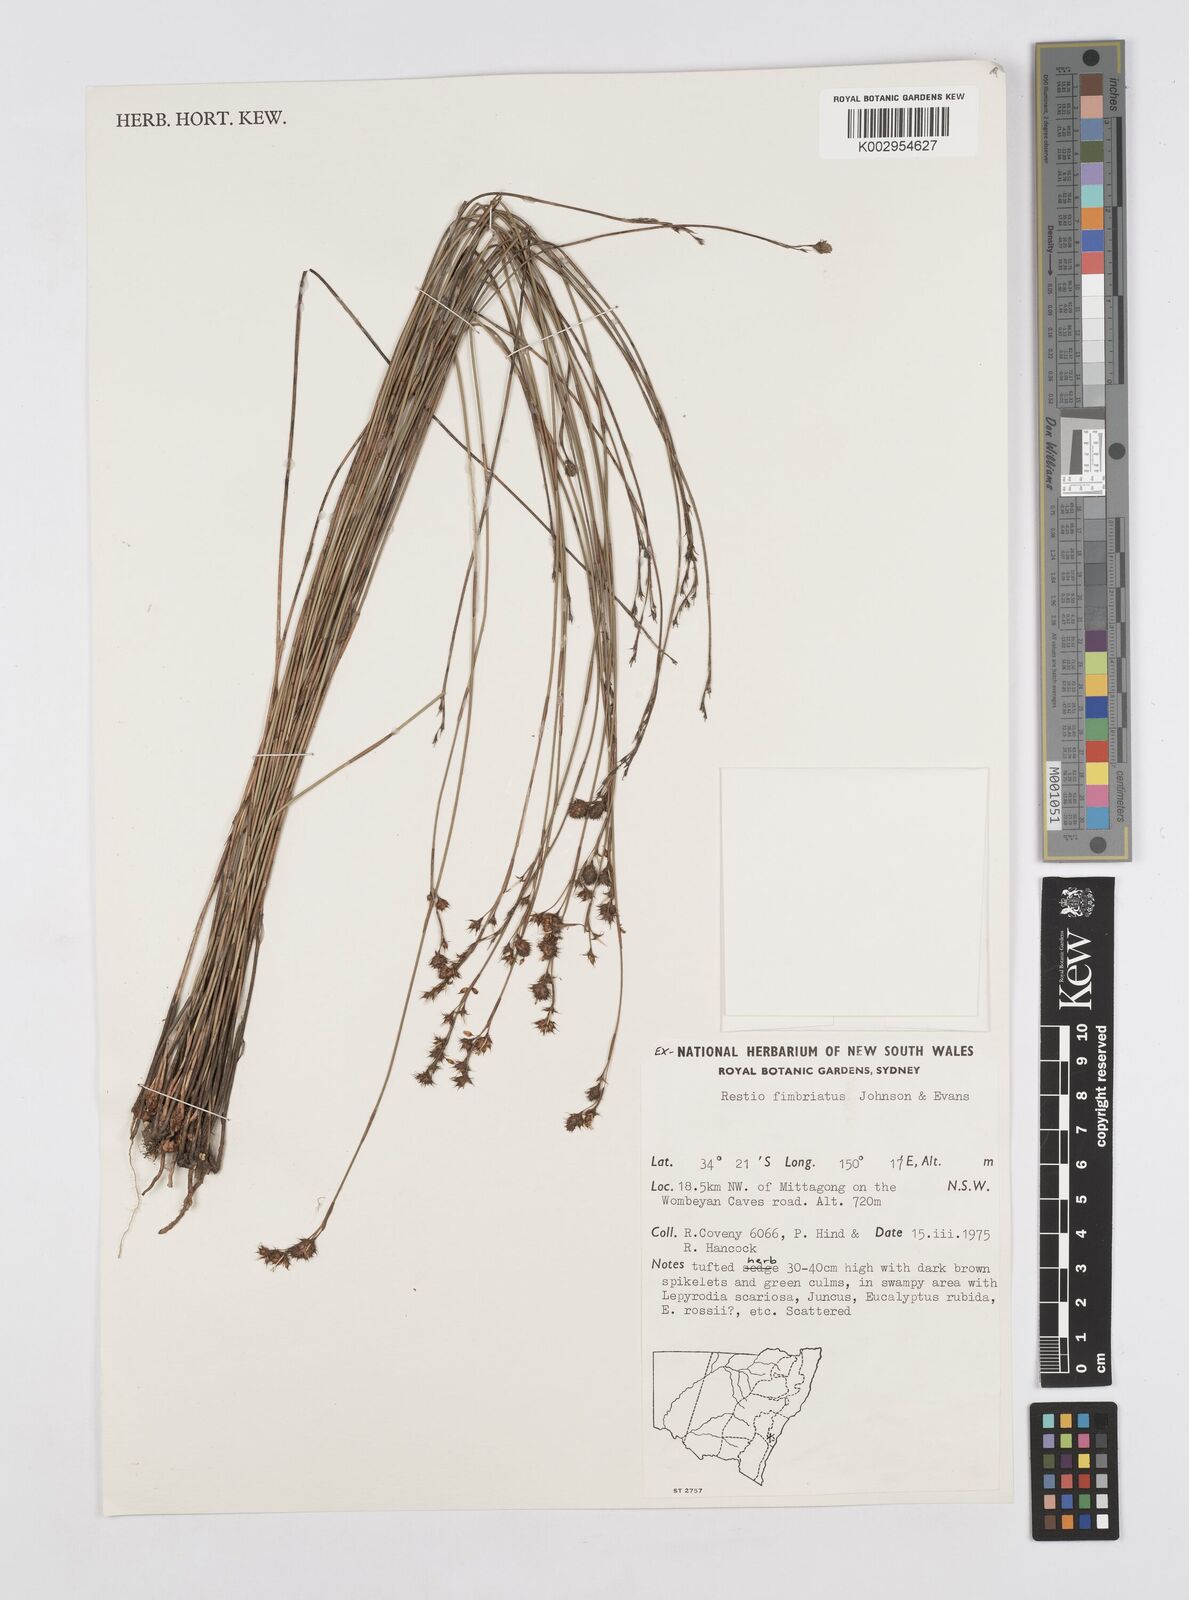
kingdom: Plantae
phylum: Tracheophyta
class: Liliopsida
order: Poales
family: Restionaceae
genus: Baloskion
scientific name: Baloskion fimbriatum
